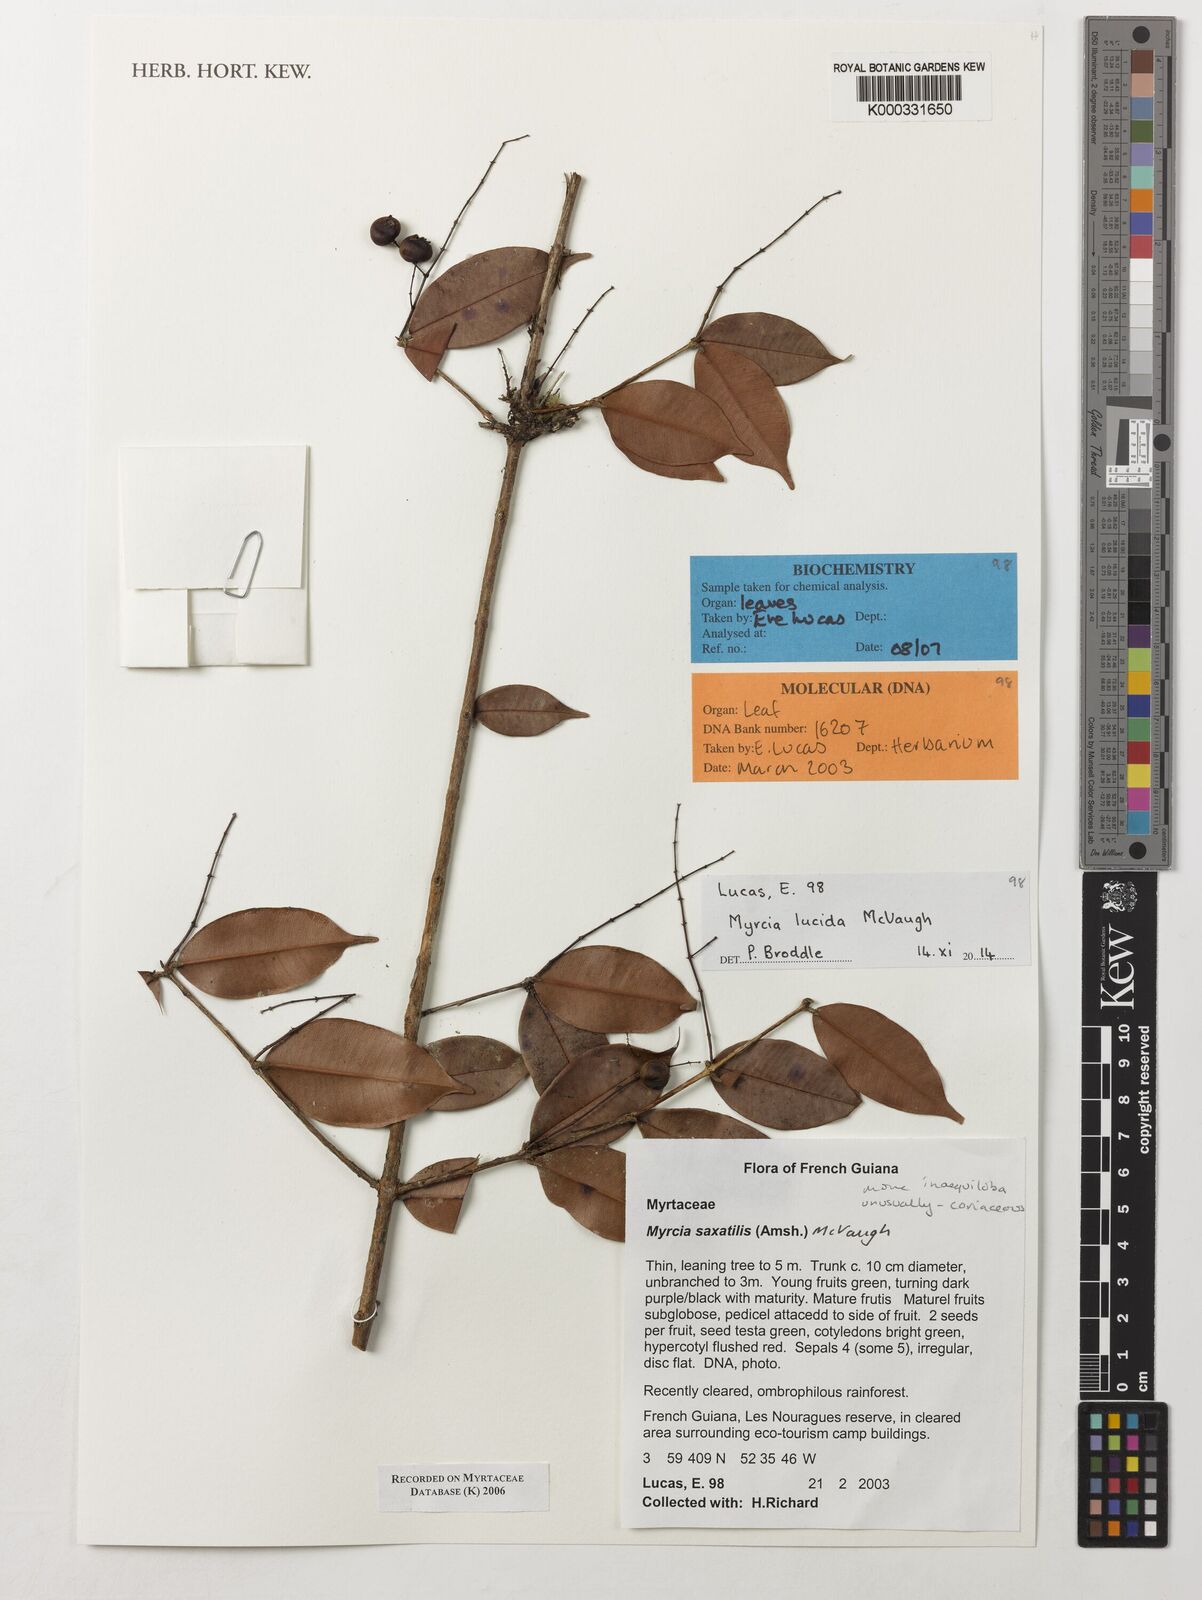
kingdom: Plantae
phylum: Tracheophyta
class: Magnoliopsida
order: Myrtales
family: Myrtaceae
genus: Myrcia
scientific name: Myrcia saxatilis
